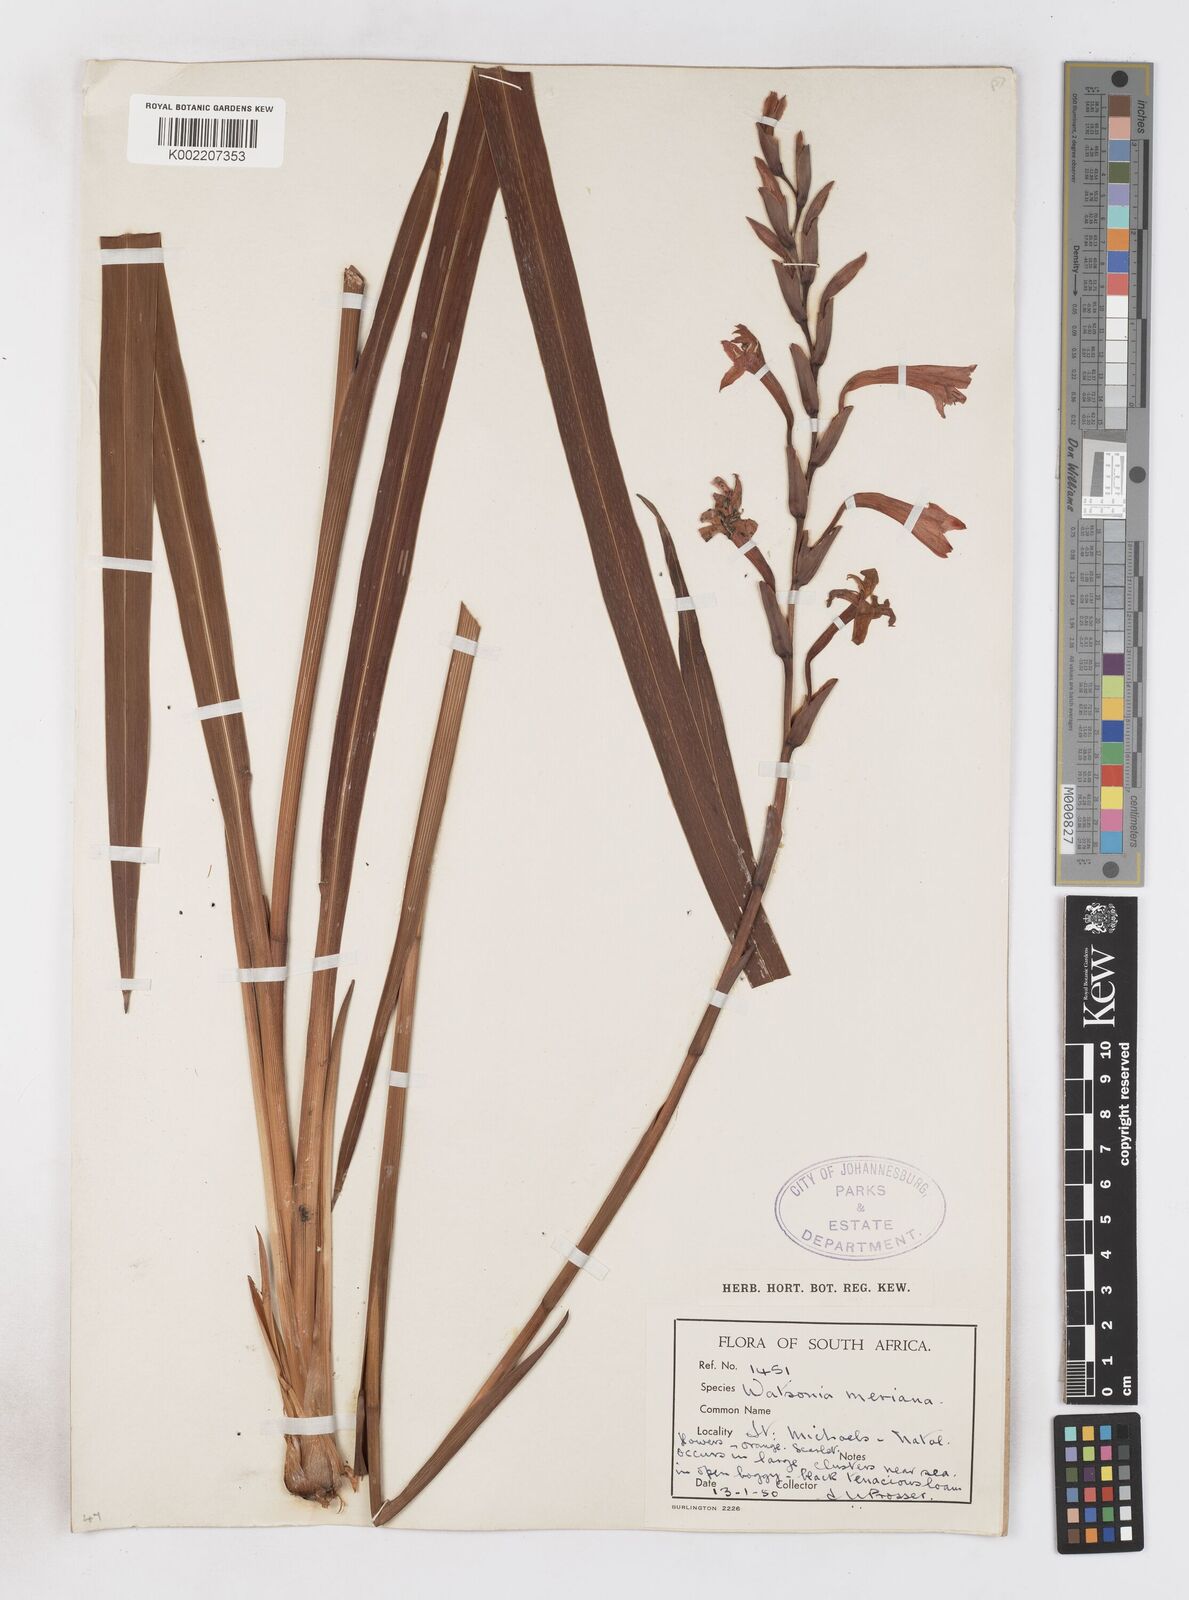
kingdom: Plantae
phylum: Tracheophyta
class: Liliopsida
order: Asparagales
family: Iridaceae
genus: Watsonia
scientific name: Watsonia pillansii
